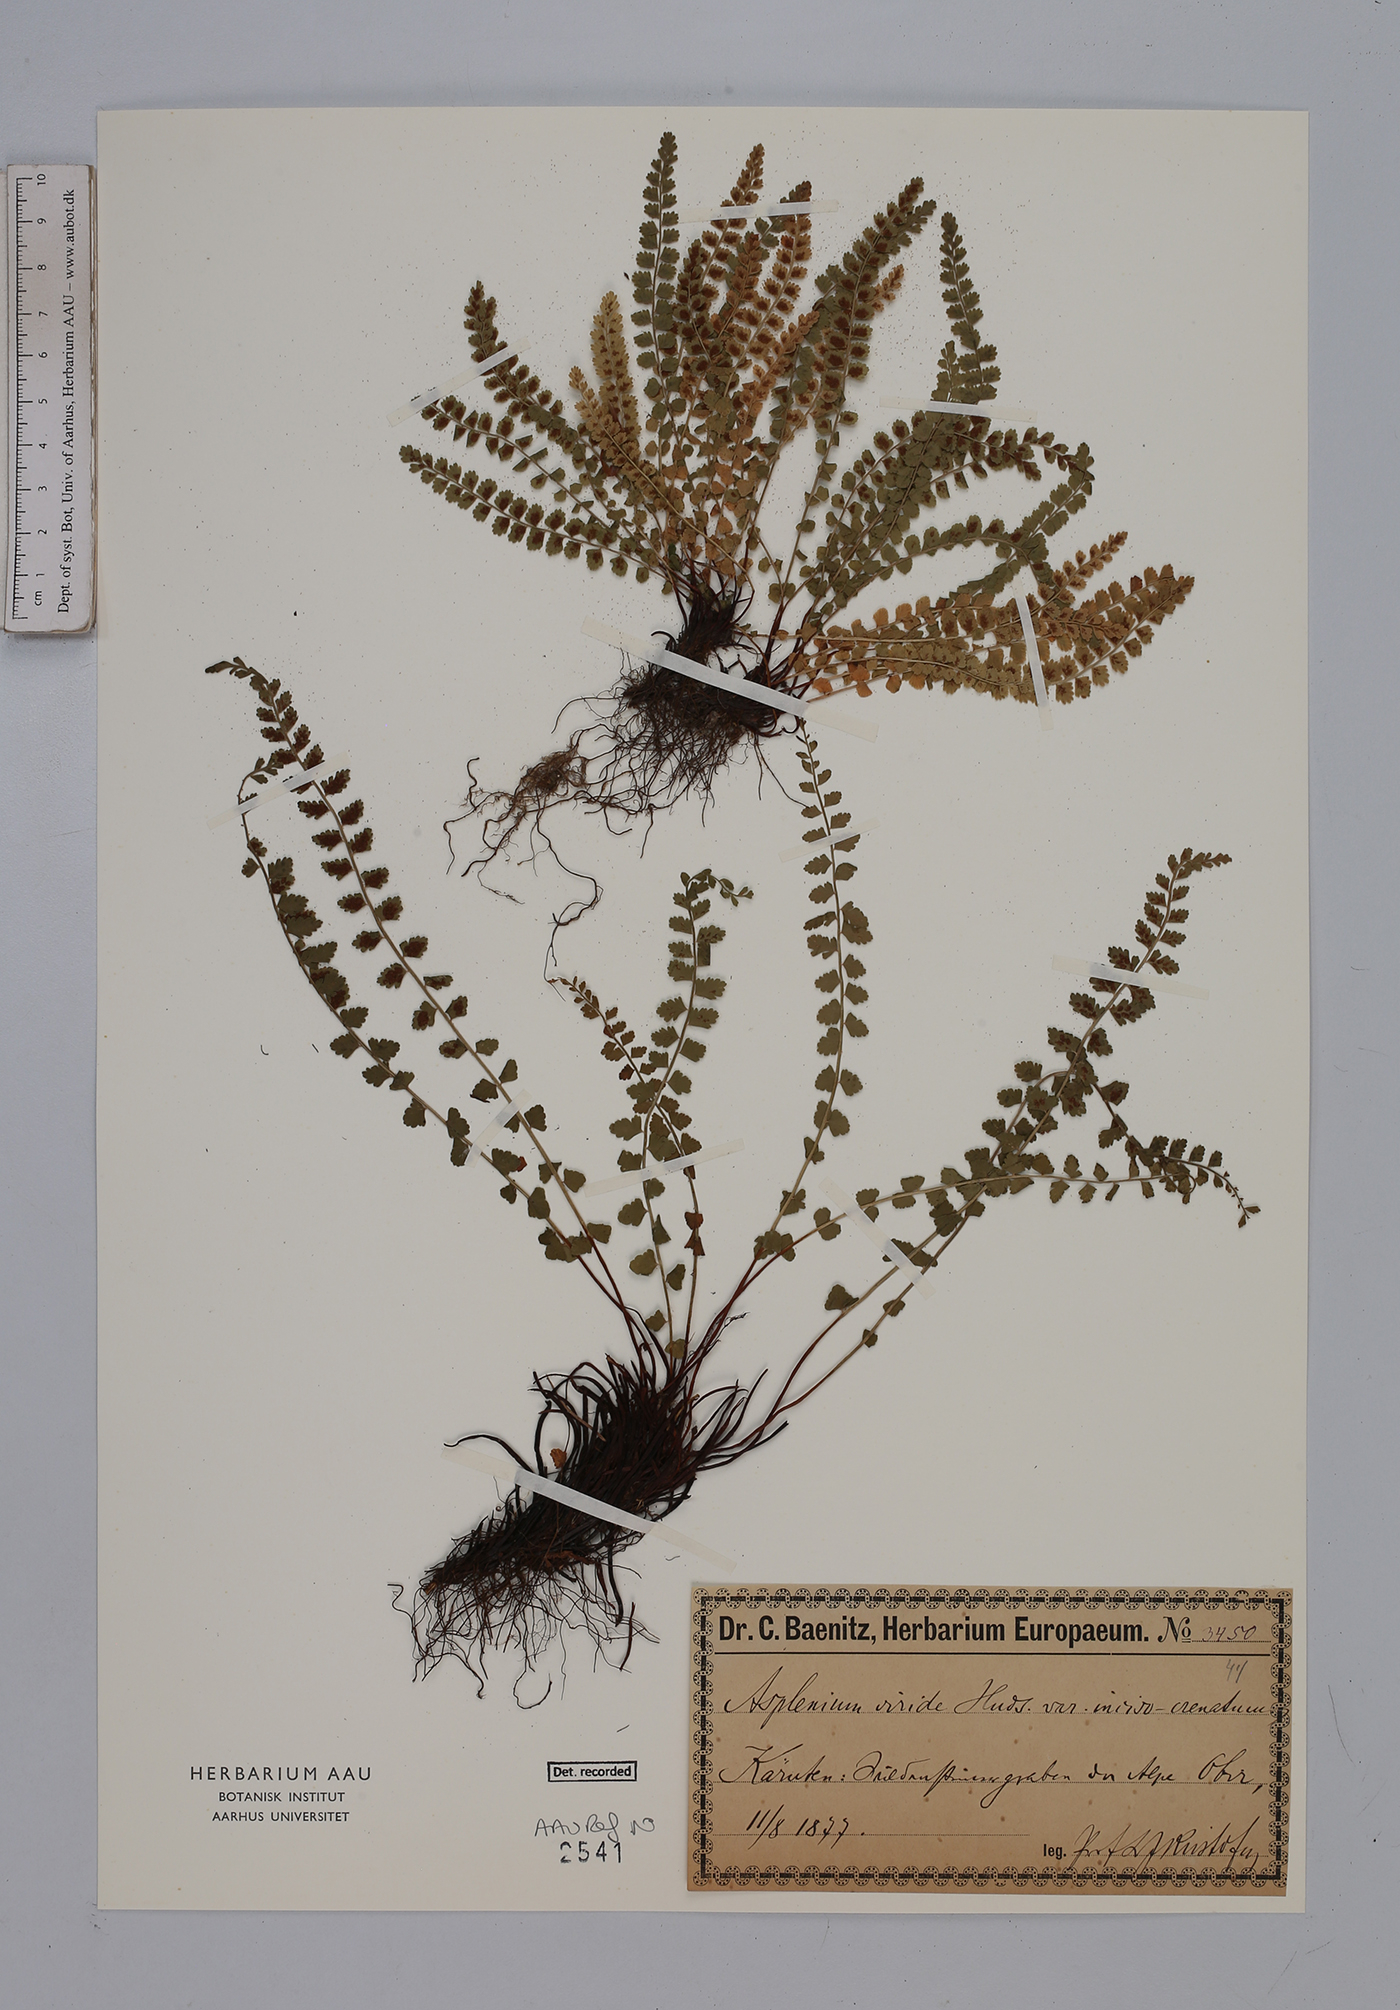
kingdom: Plantae
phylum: Tracheophyta
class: Polypodiopsida
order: Polypodiales
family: Aspleniaceae
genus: Asplenium
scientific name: Asplenium viride
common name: Green spleenwort
